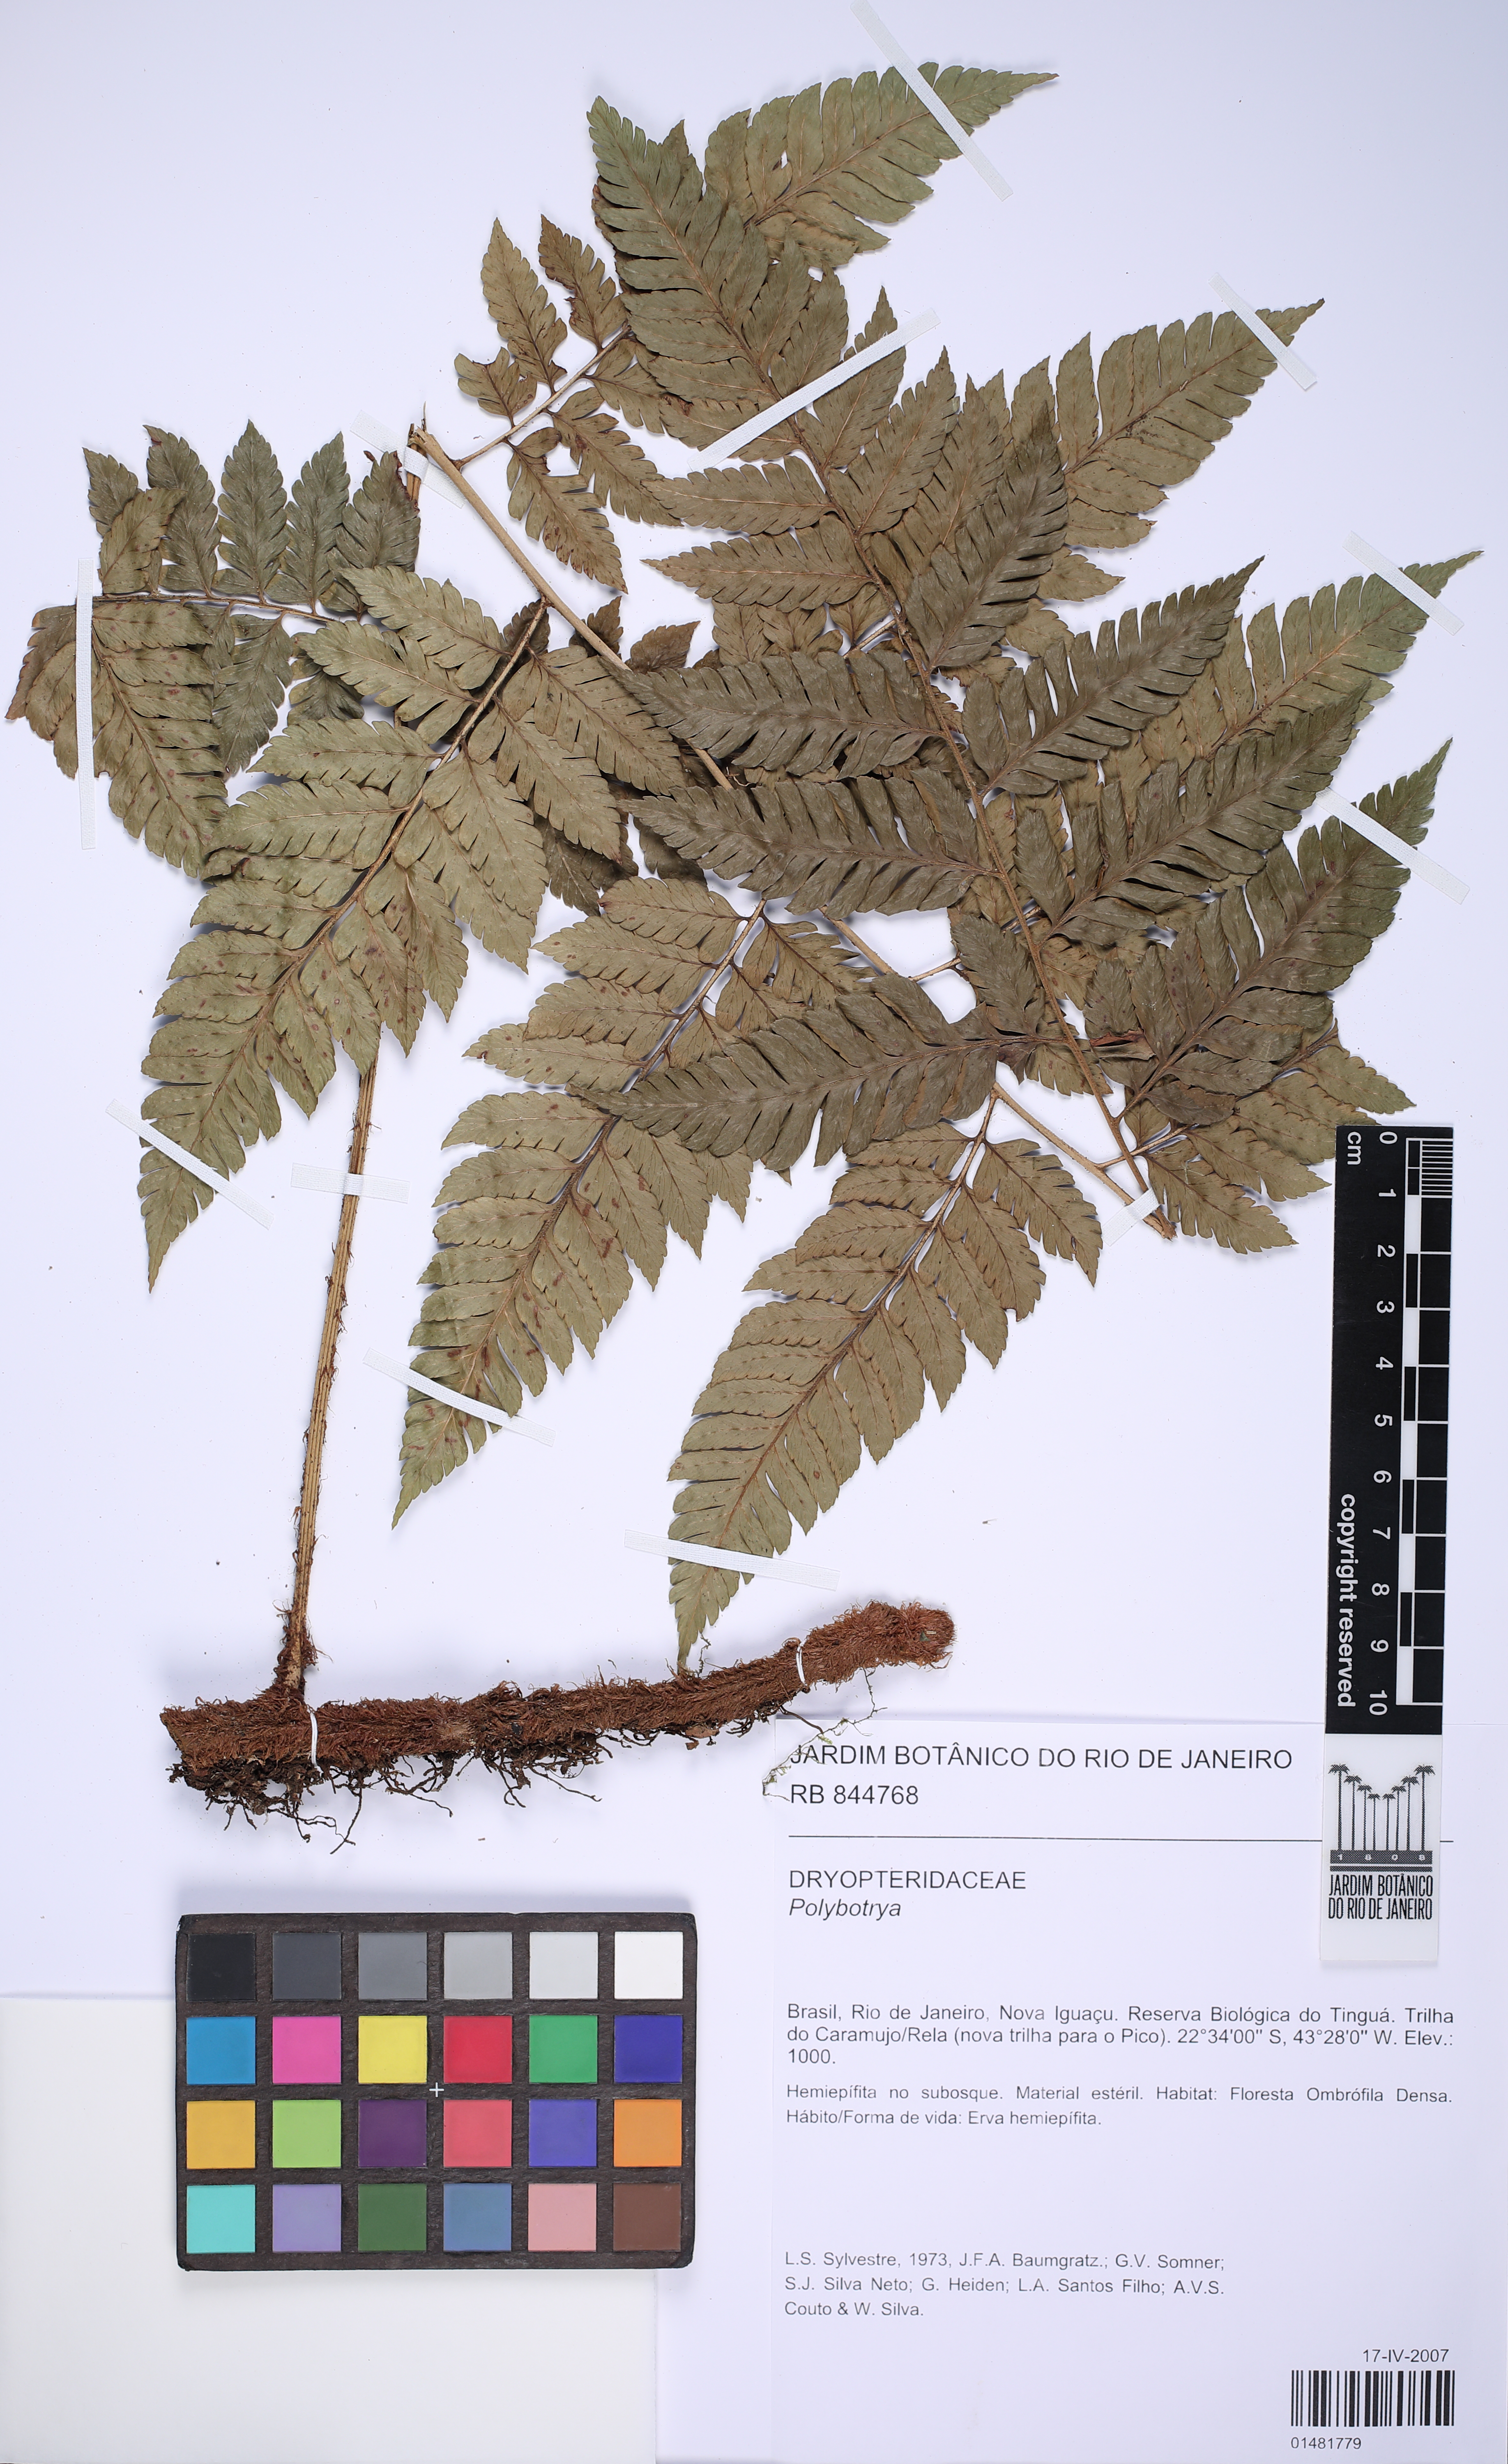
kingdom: Plantae
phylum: Tracheophyta
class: Polypodiopsida
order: Polypodiales
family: Dryopteridaceae
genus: Polybotrya
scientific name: Polybotrya
